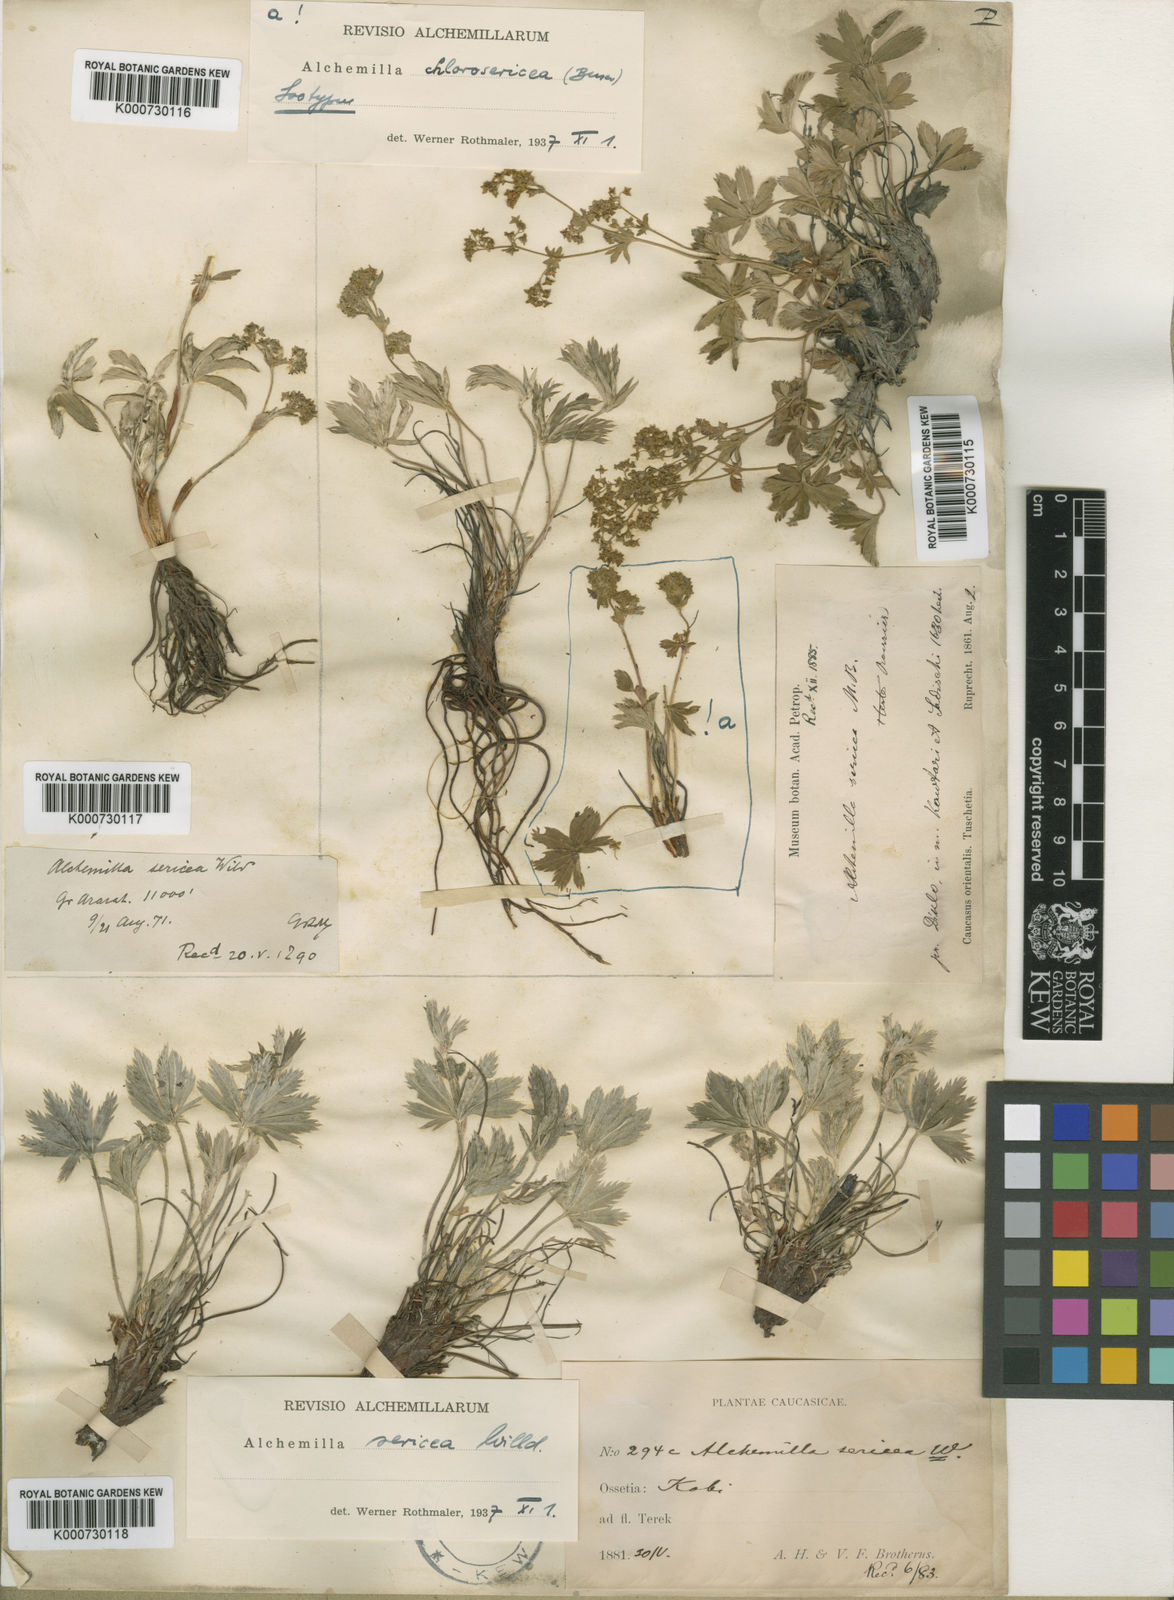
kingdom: Plantae
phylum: Tracheophyta
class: Magnoliopsida
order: Rosales
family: Rosaceae
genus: Alchemilla
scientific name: Alchemilla sericea
